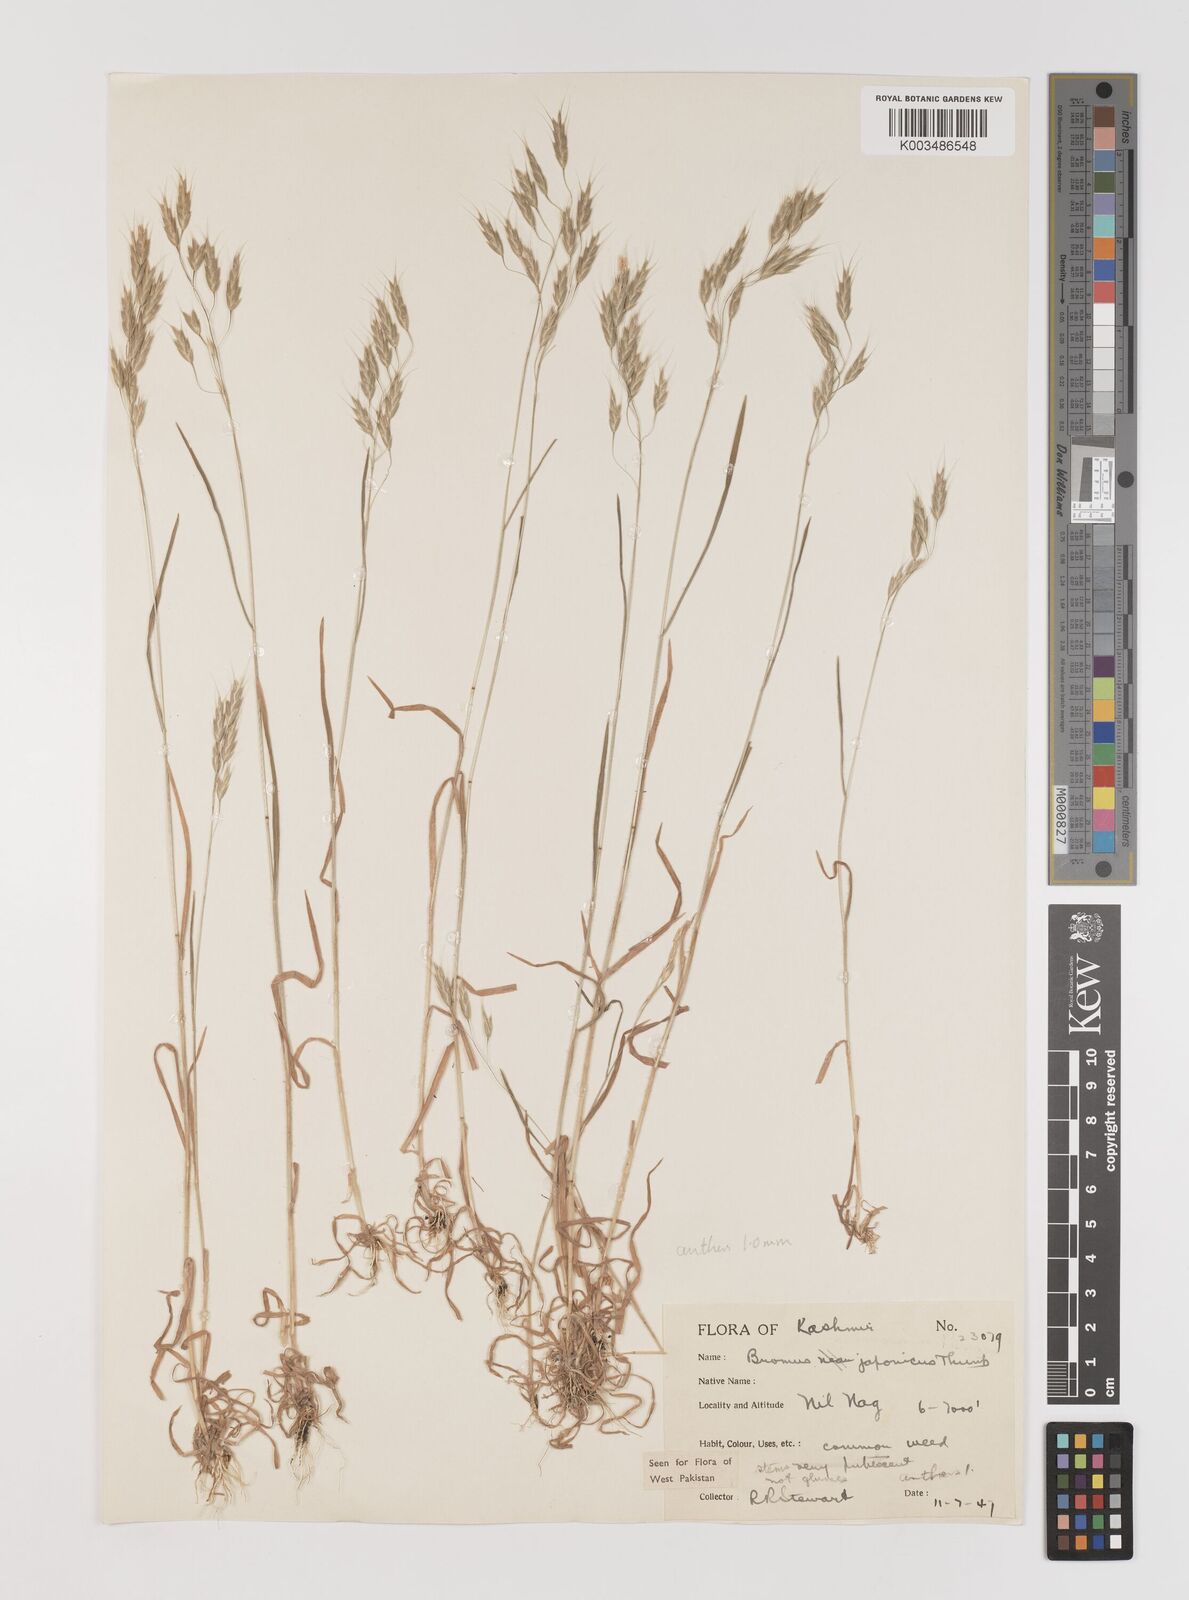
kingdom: Plantae
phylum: Tracheophyta
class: Liliopsida
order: Poales
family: Poaceae
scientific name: Poaceae
